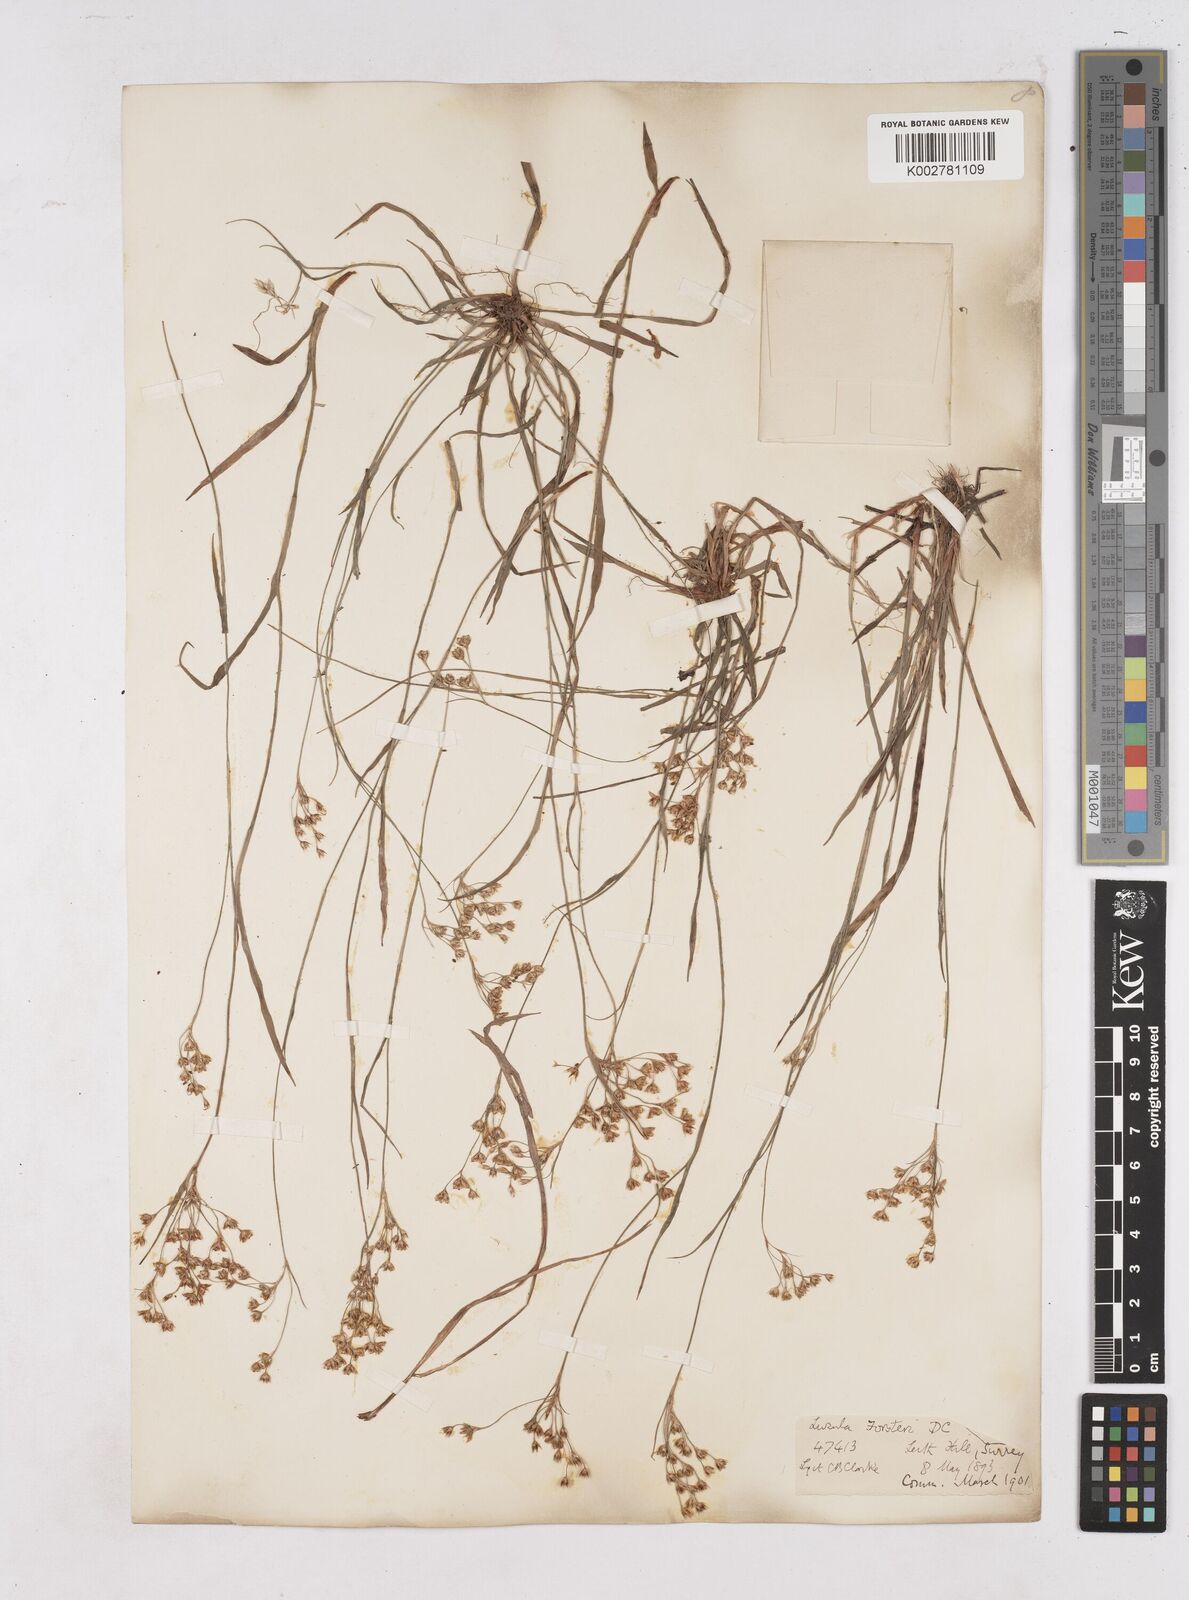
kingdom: Plantae
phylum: Tracheophyta
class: Liliopsida
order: Poales
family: Juncaceae
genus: Luzula
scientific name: Luzula forsteri
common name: Southern wood-rush
